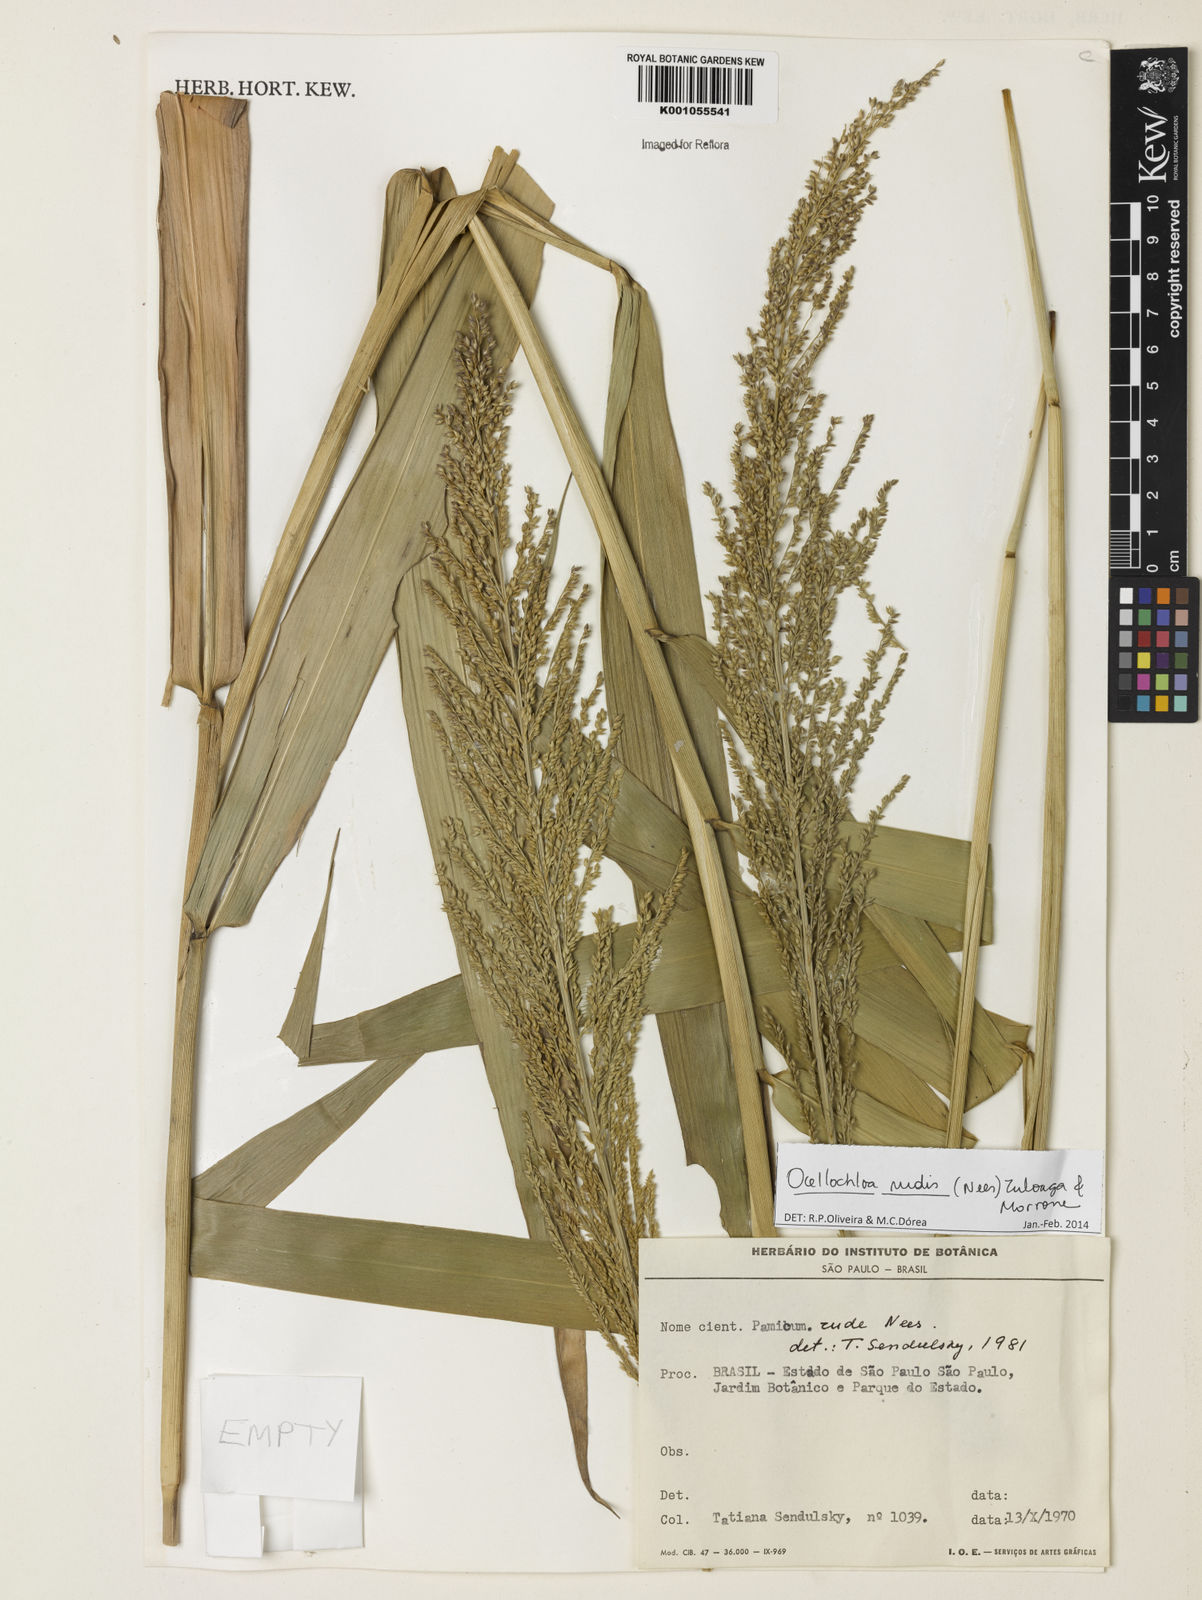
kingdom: Plantae
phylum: Tracheophyta
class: Liliopsida
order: Poales
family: Poaceae
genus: Ocellochloa
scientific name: Ocellochloa rudis
